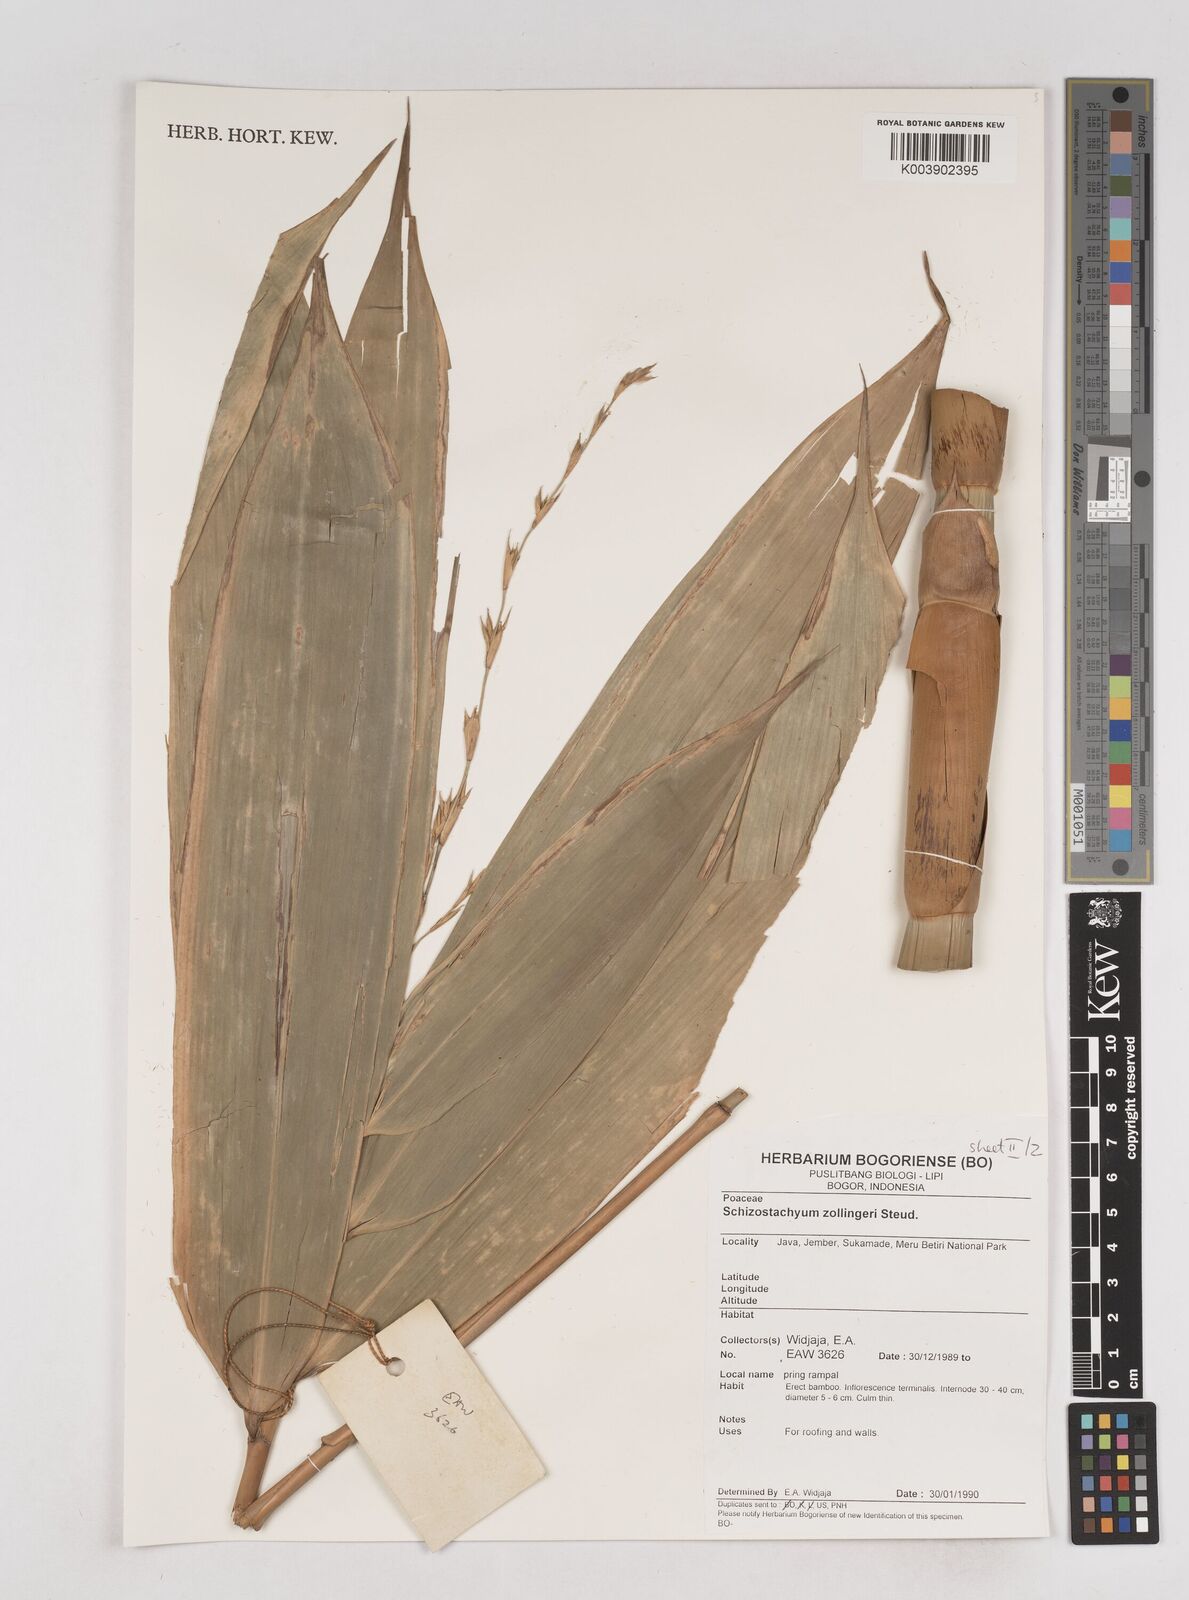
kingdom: Plantae
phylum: Tracheophyta
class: Liliopsida
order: Poales
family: Poaceae
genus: Schizostachyum
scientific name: Schizostachyum zollingeri
